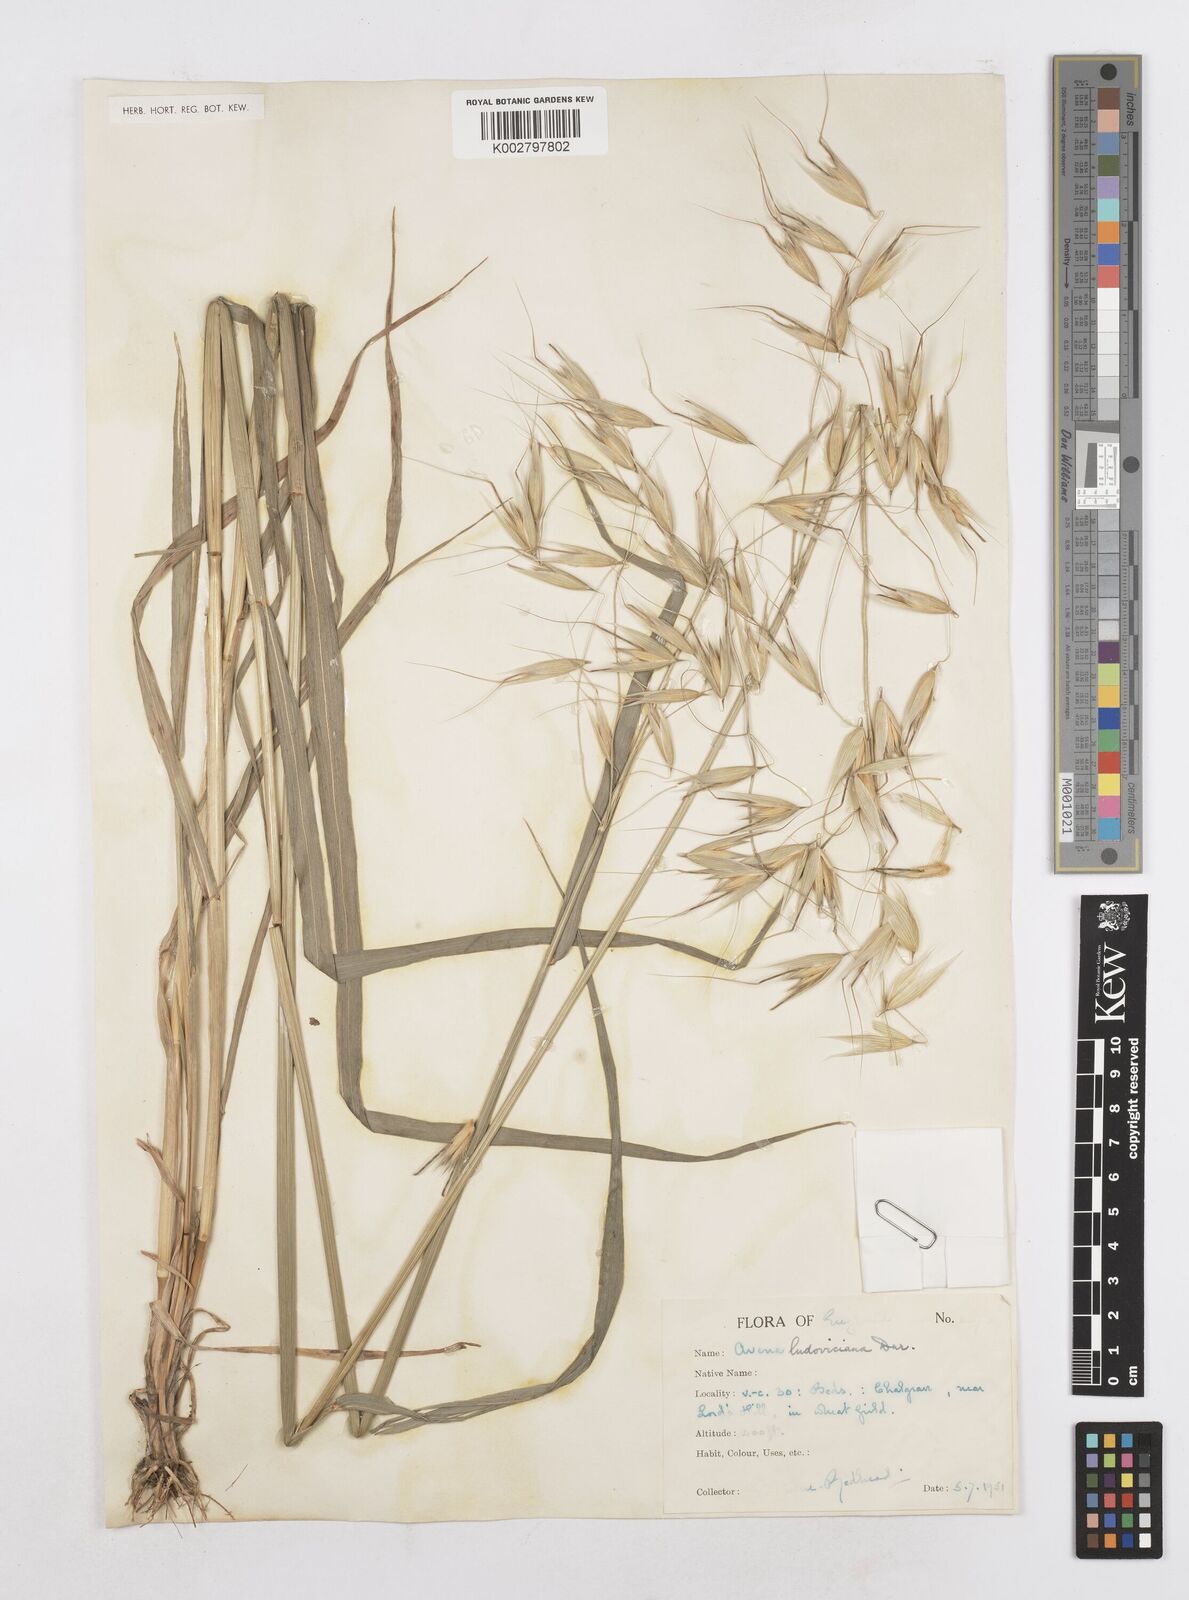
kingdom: Plantae
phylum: Tracheophyta
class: Liliopsida
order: Poales
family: Poaceae
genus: Avena
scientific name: Avena sterilis
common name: Animated oat
